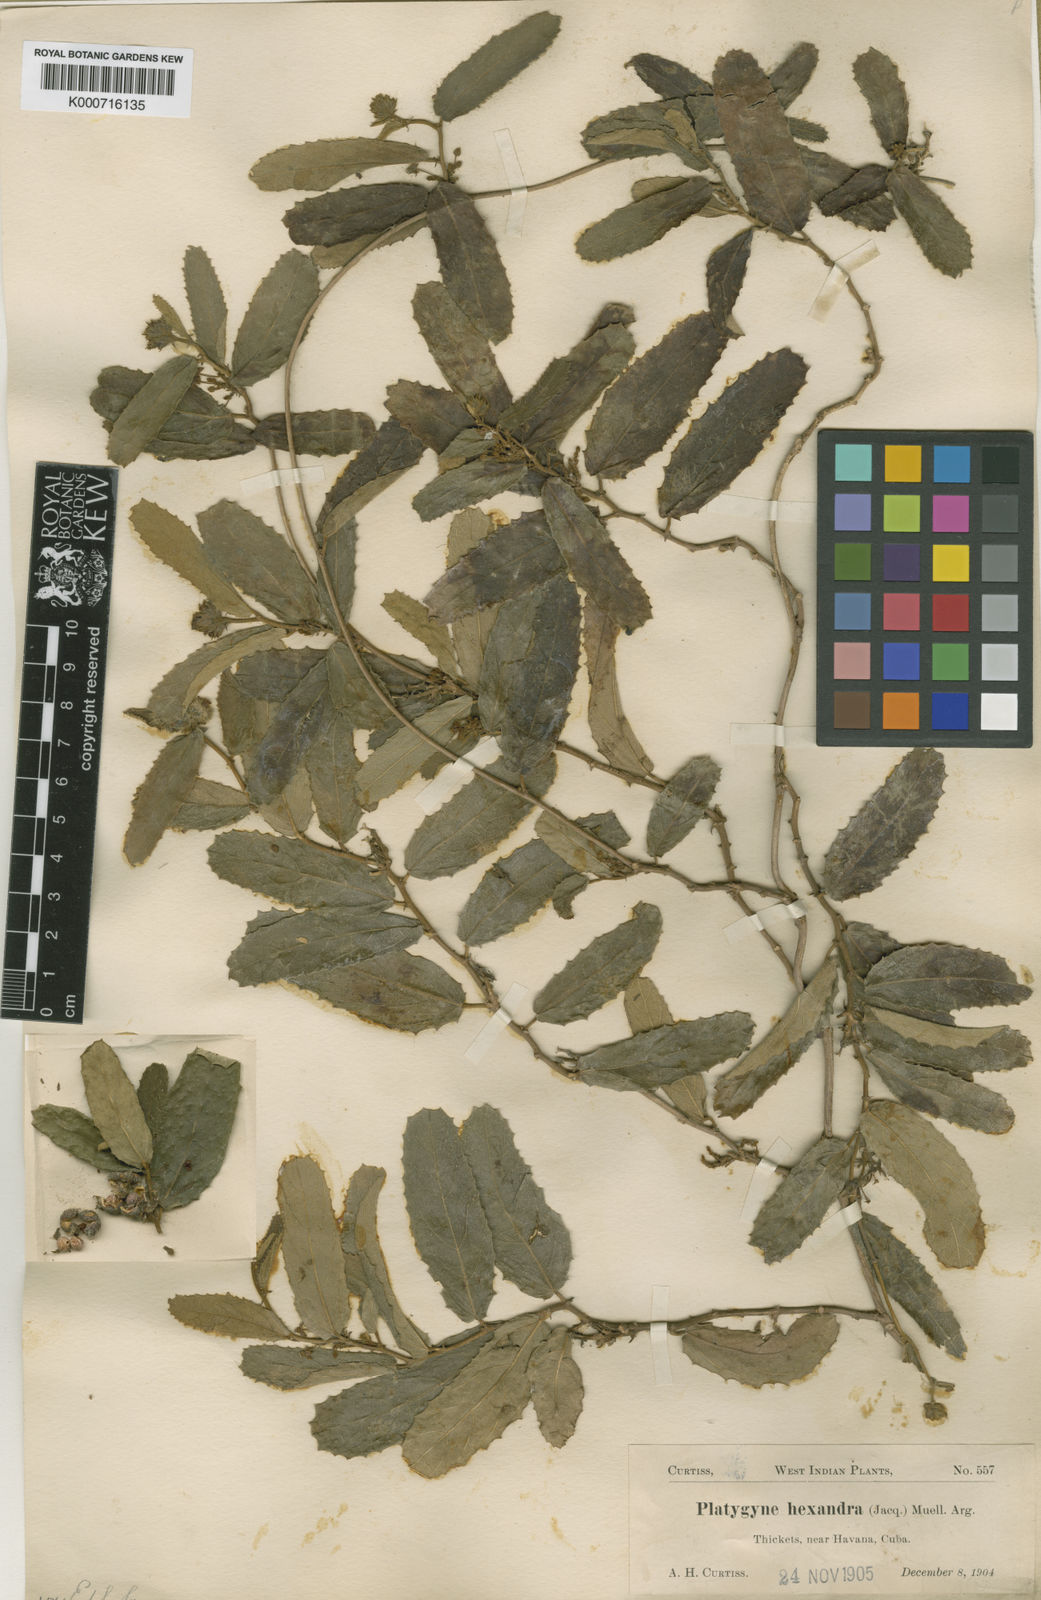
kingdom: Plantae
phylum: Tracheophyta
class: Magnoliopsida
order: Malpighiales
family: Euphorbiaceae
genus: Platygyna
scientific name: Platygyna
